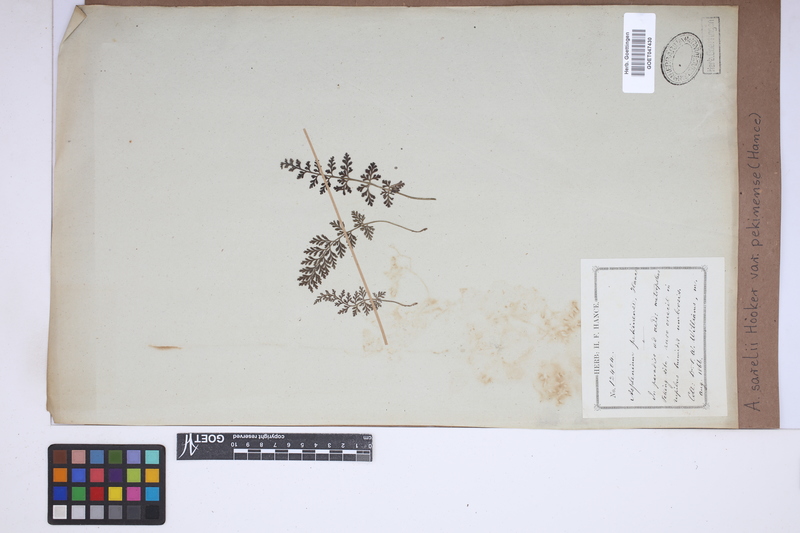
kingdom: Plantae
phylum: Tracheophyta
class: Polypodiopsida
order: Polypodiales
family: Aspleniaceae
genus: Asplenium
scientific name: Asplenium sarelii
